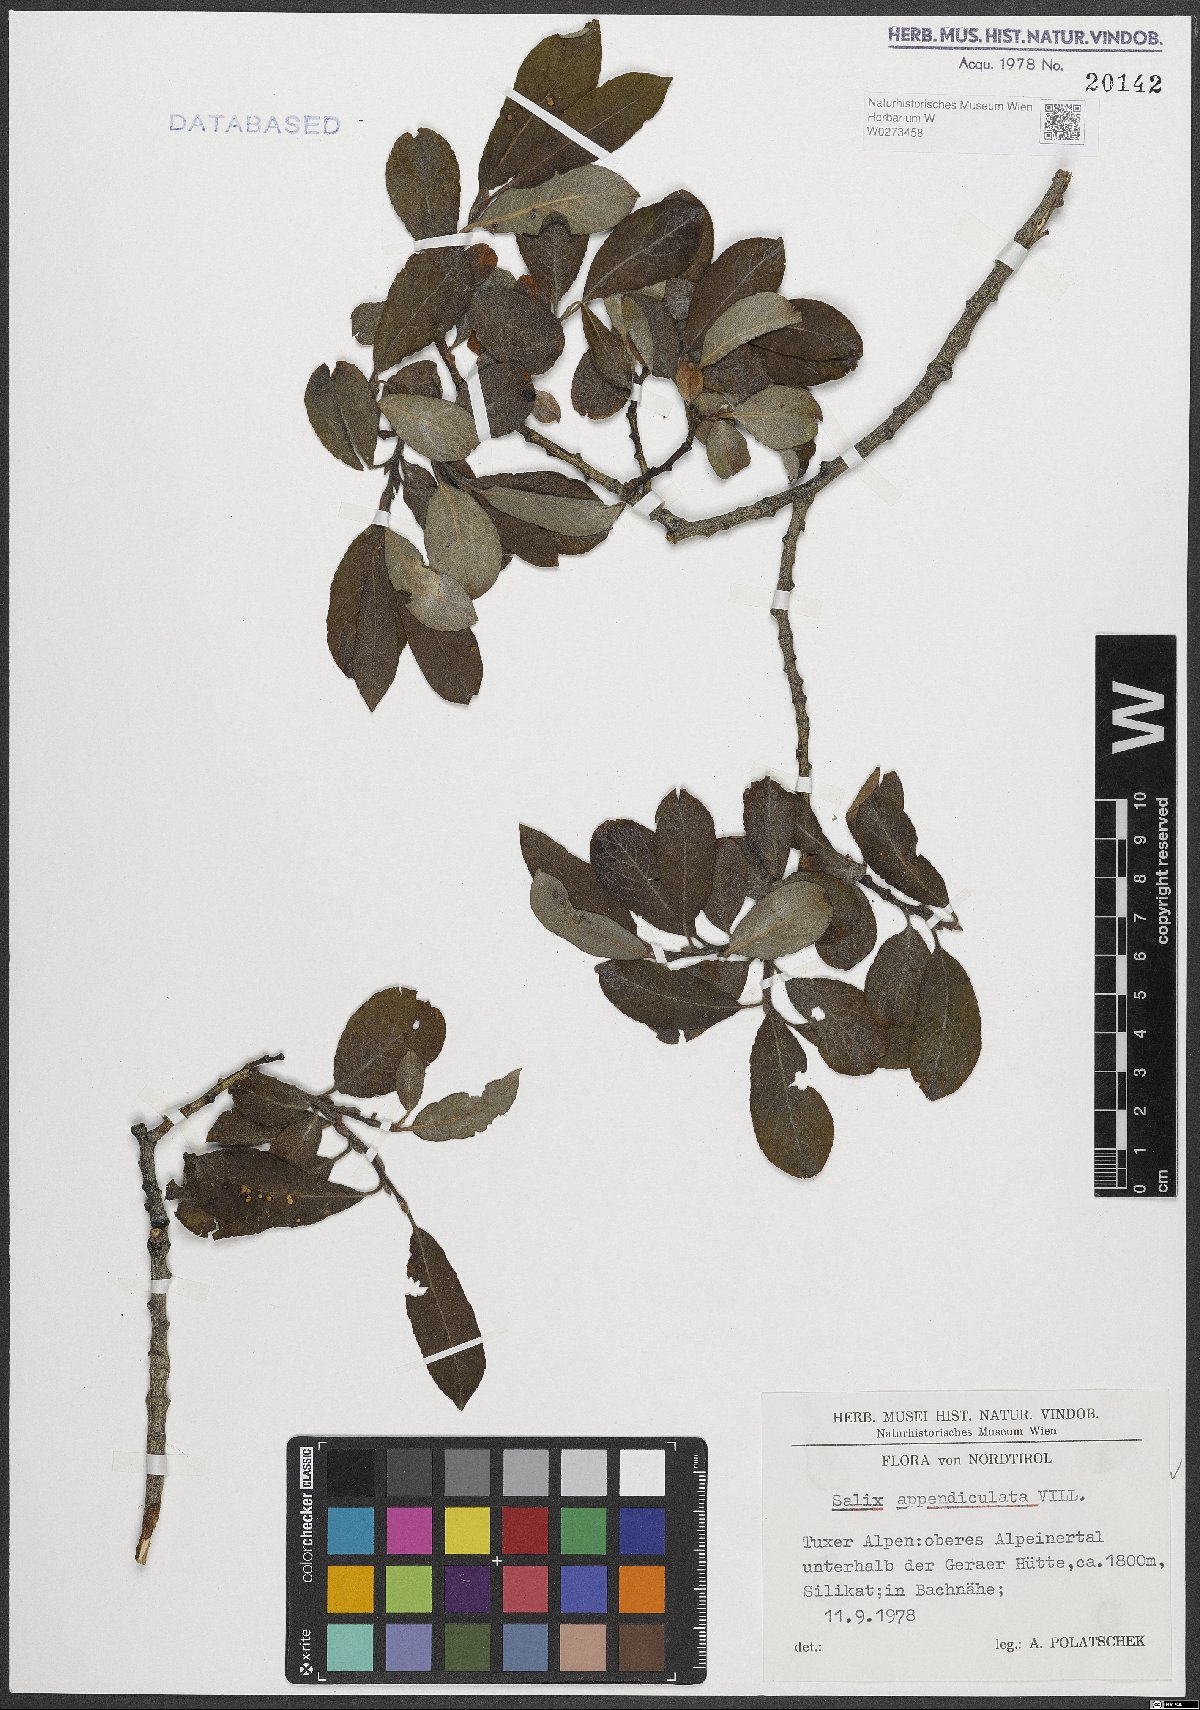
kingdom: Plantae
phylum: Tracheophyta
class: Magnoliopsida
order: Malpighiales
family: Salicaceae
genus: Salix
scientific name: Salix appendiculata
